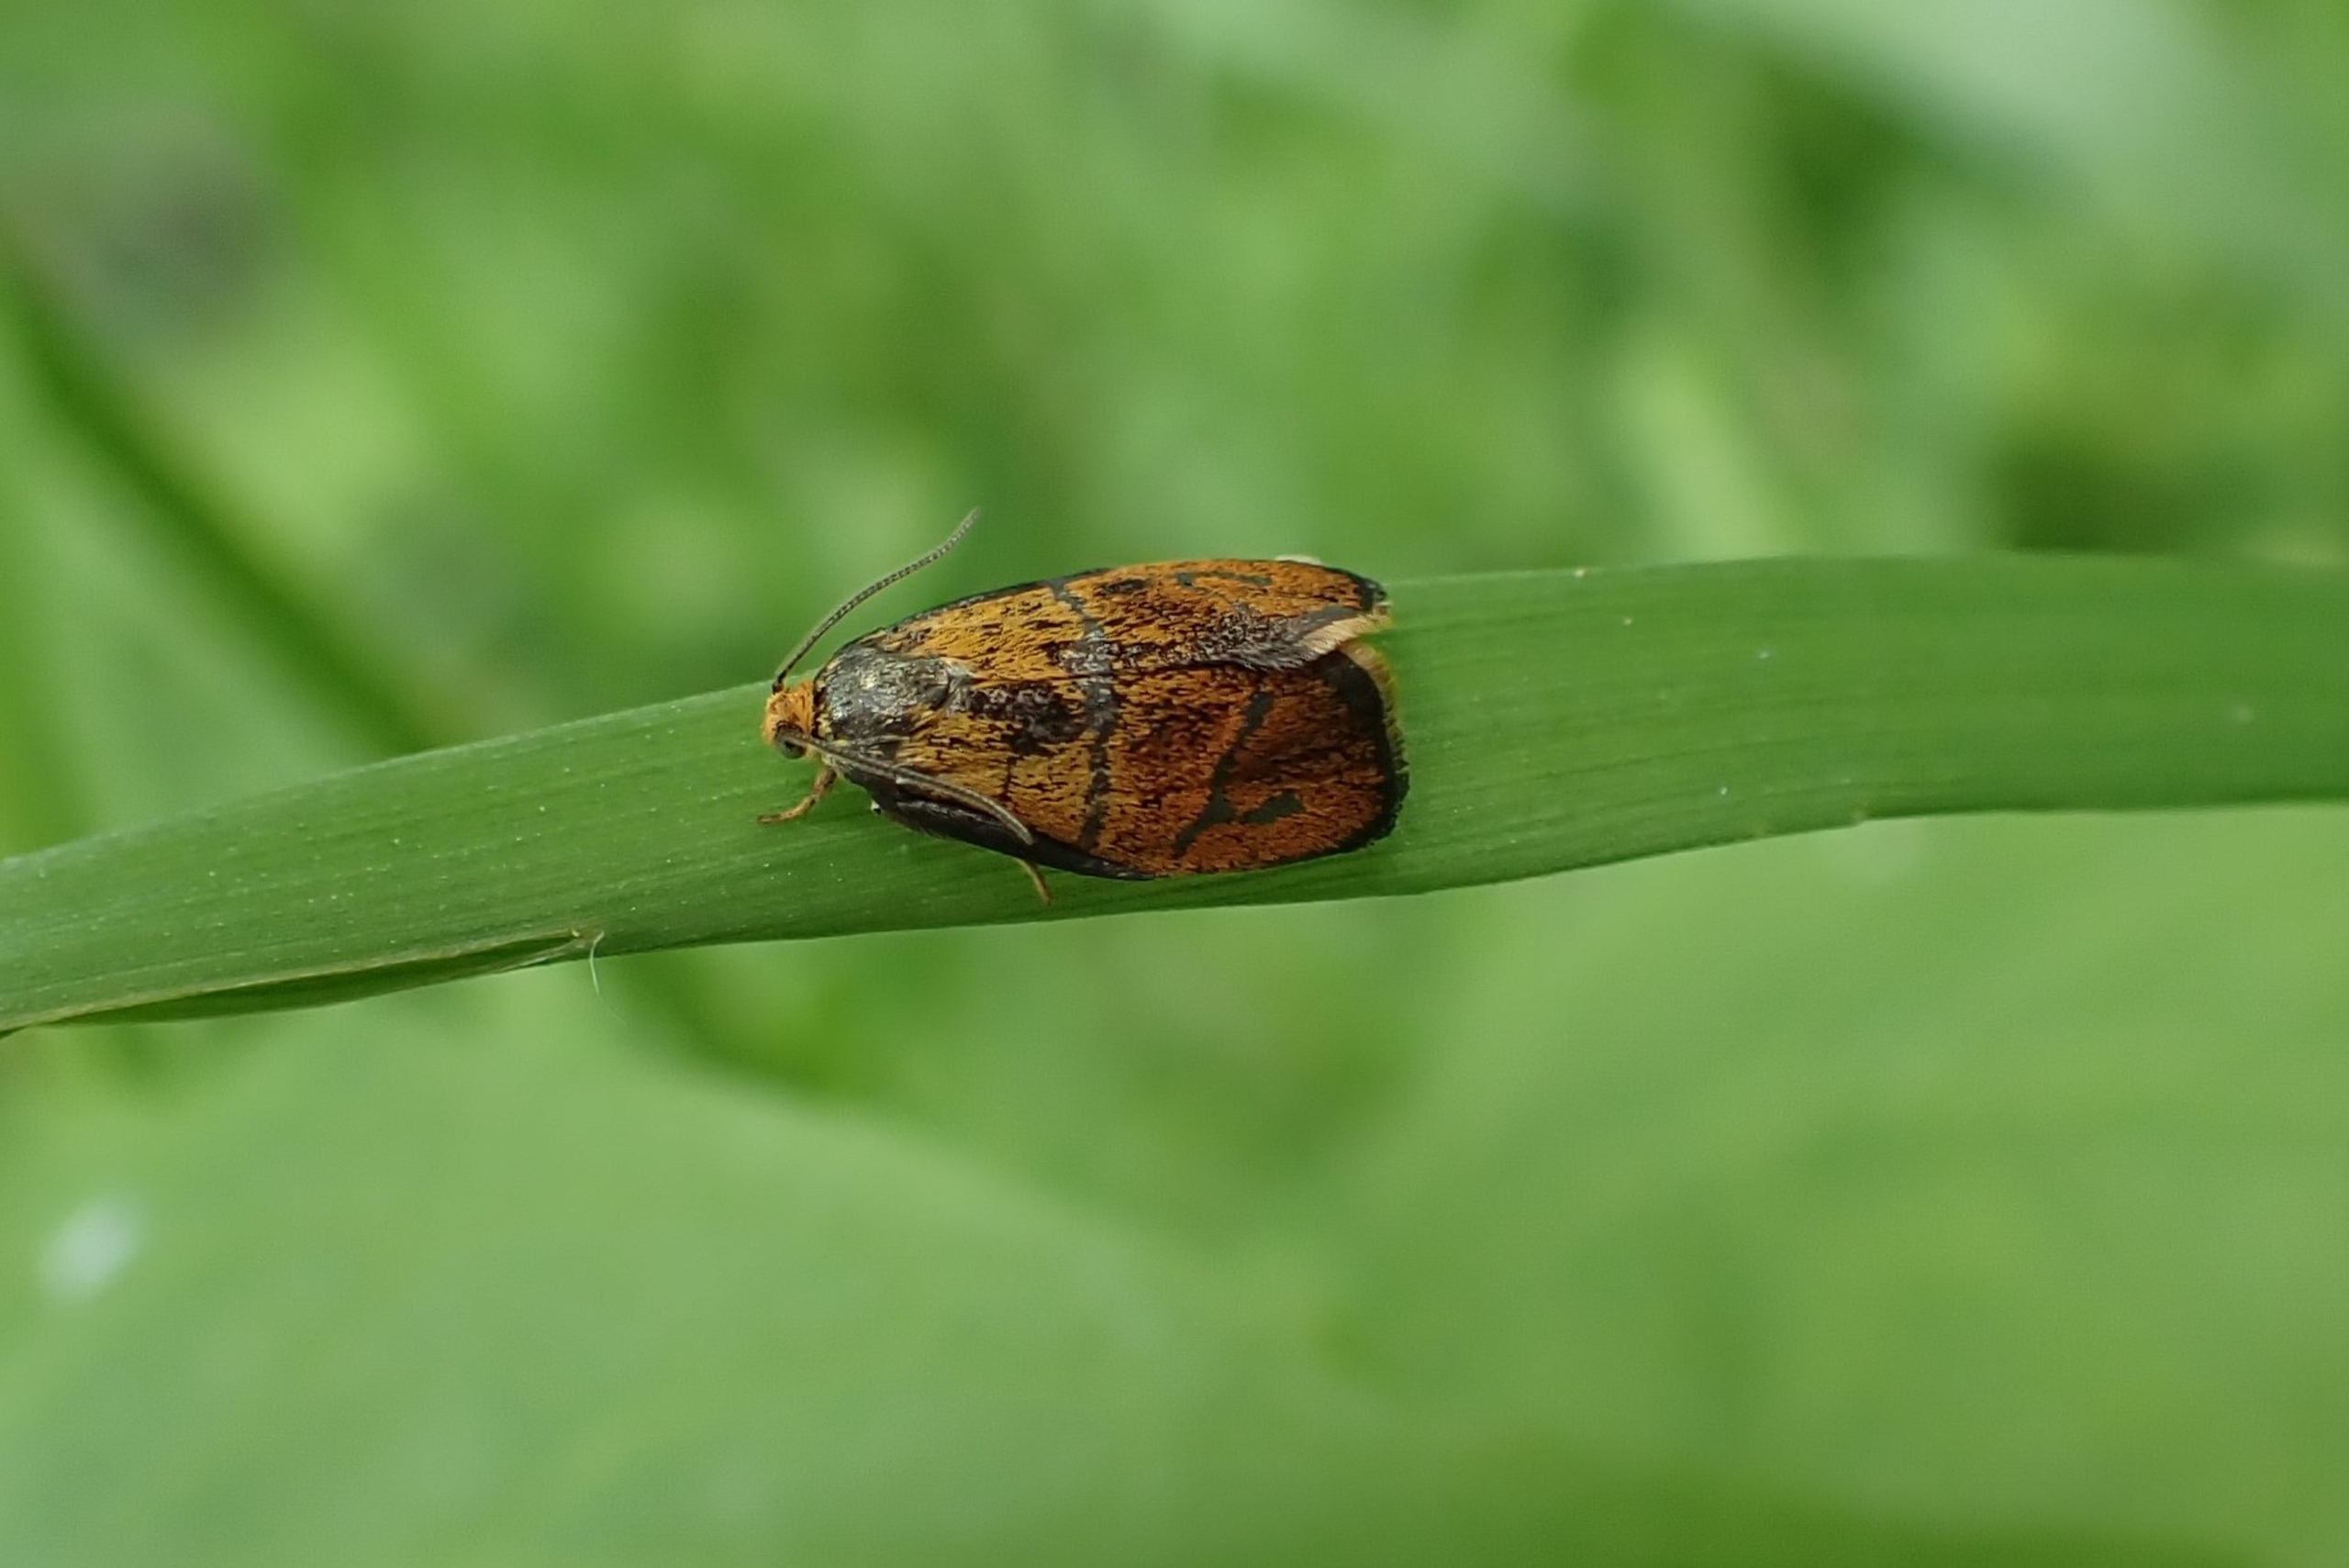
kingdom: Animalia
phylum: Arthropoda
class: Insecta
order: Lepidoptera
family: Tortricidae
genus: Ptycholoma
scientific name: Ptycholoma lecheana
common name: Gulbugvikler
